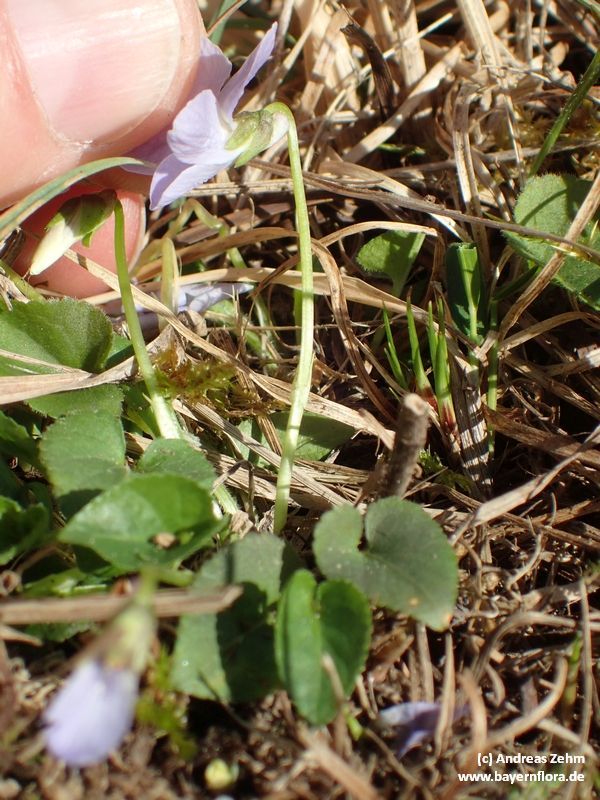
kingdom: Plantae
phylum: Tracheophyta
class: Magnoliopsida
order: Malpighiales
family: Violaceae
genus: Viola
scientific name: Viola hirta
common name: Hairy violet
